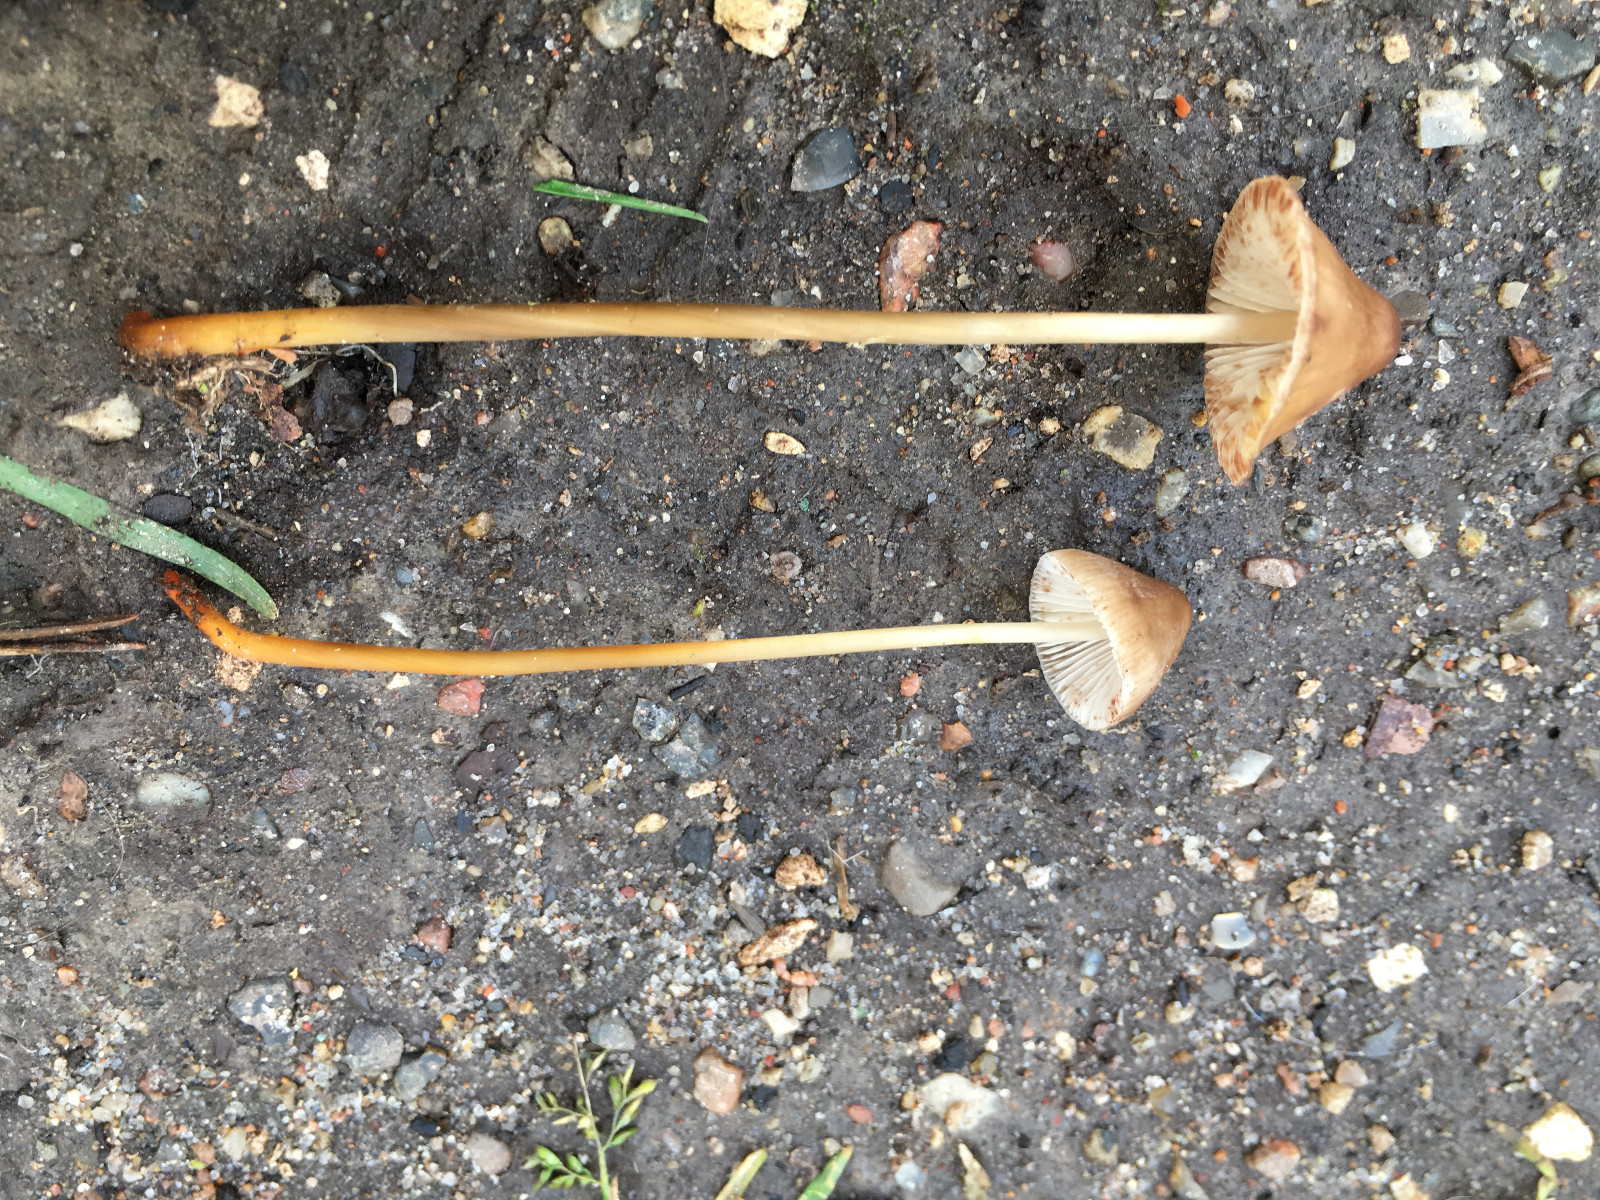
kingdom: Fungi
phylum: Basidiomycota
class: Agaricomycetes
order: Agaricales
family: Mycenaceae
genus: Mycena
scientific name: Mycena crocata
